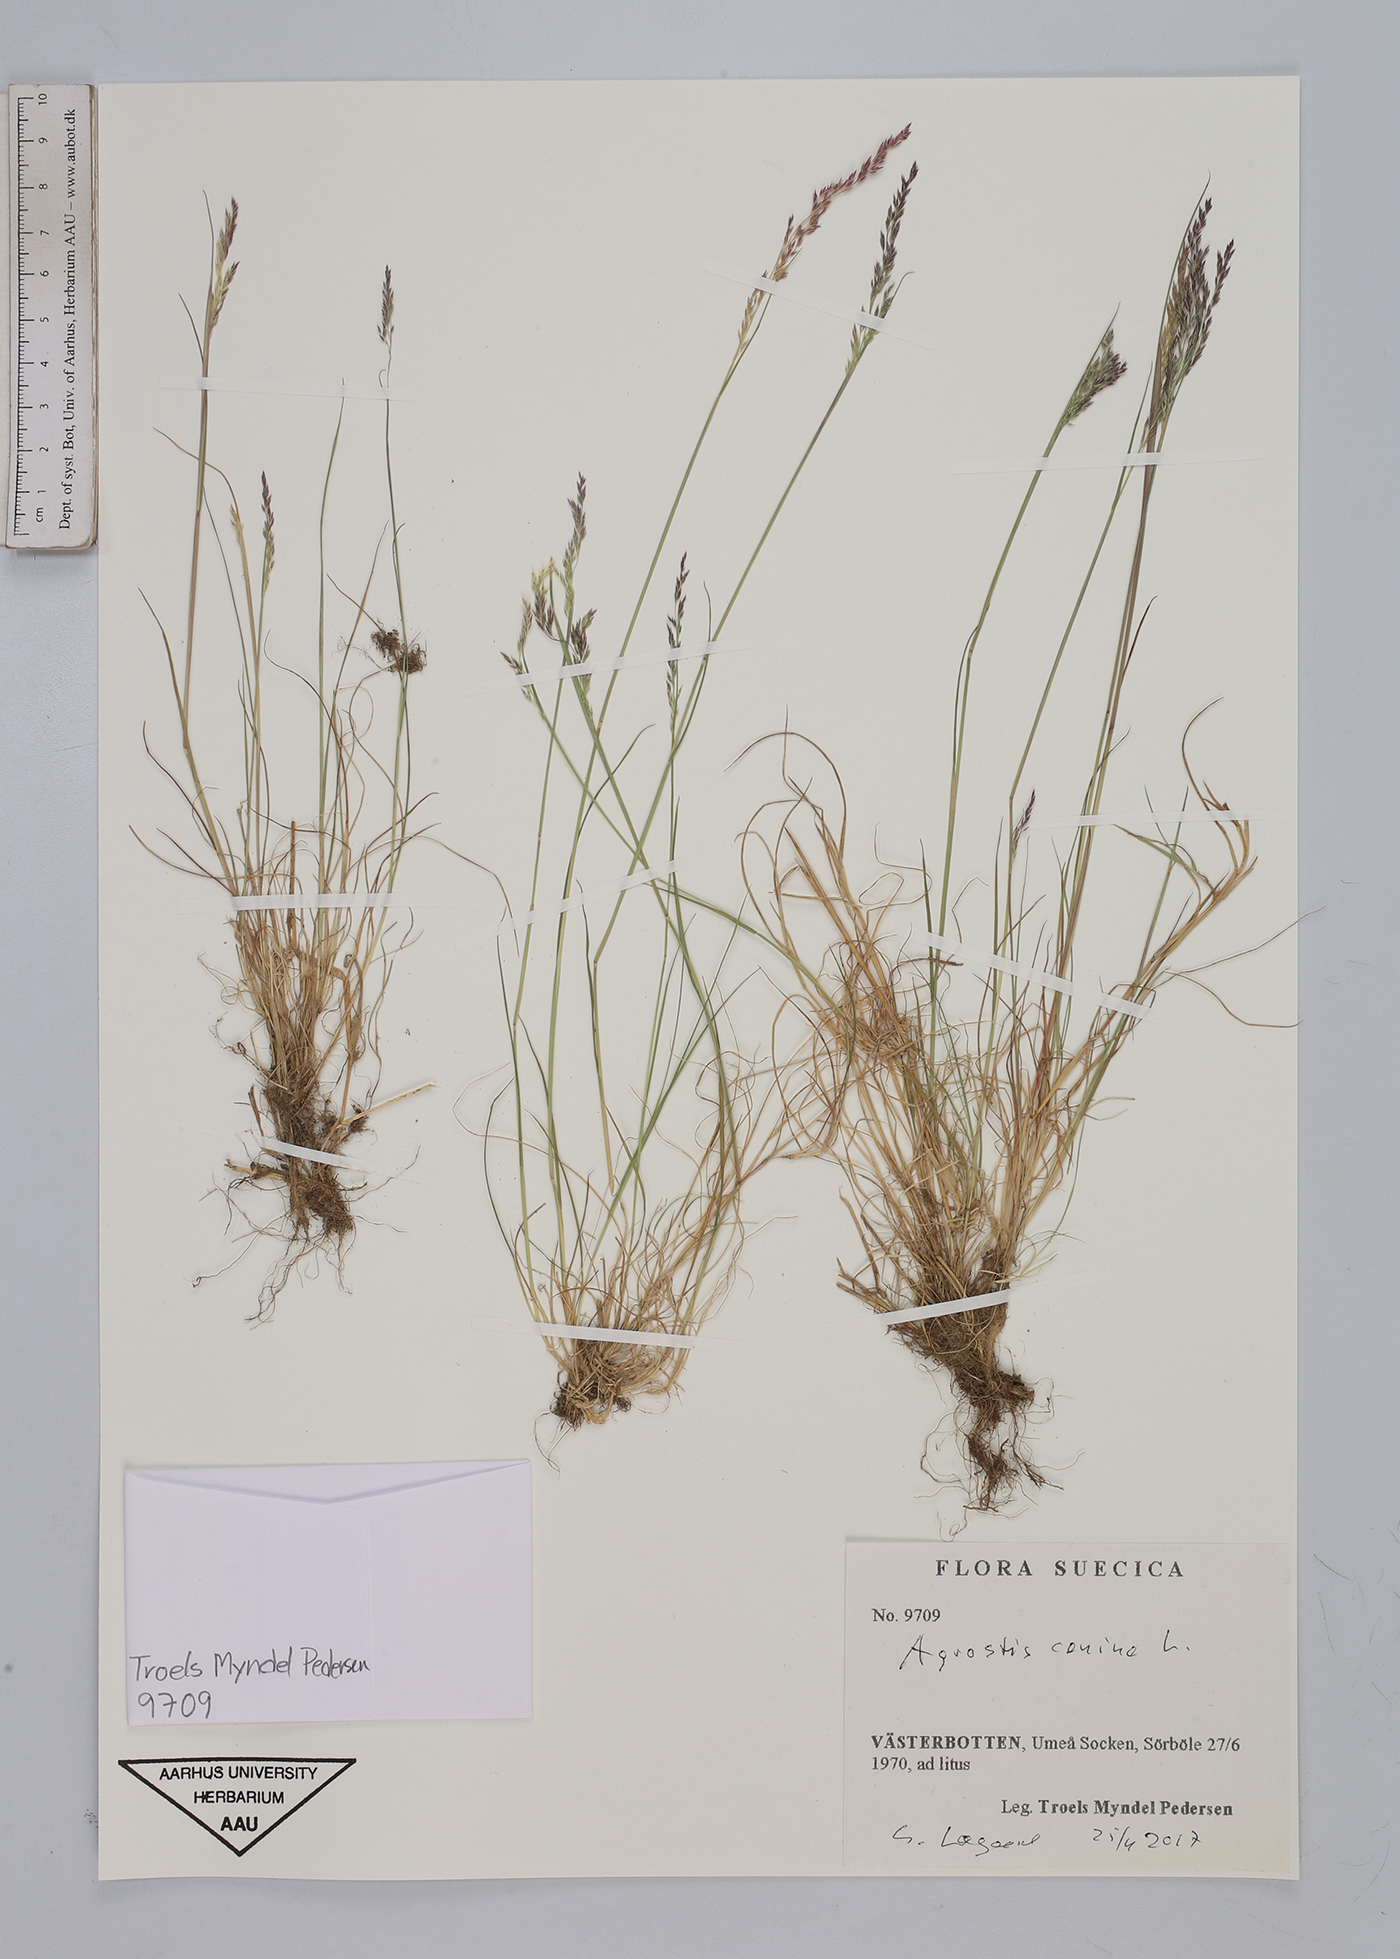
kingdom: Plantae
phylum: Tracheophyta
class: Liliopsida
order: Poales
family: Poaceae
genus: Agrostis
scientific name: Agrostis canina
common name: Velvet bent
